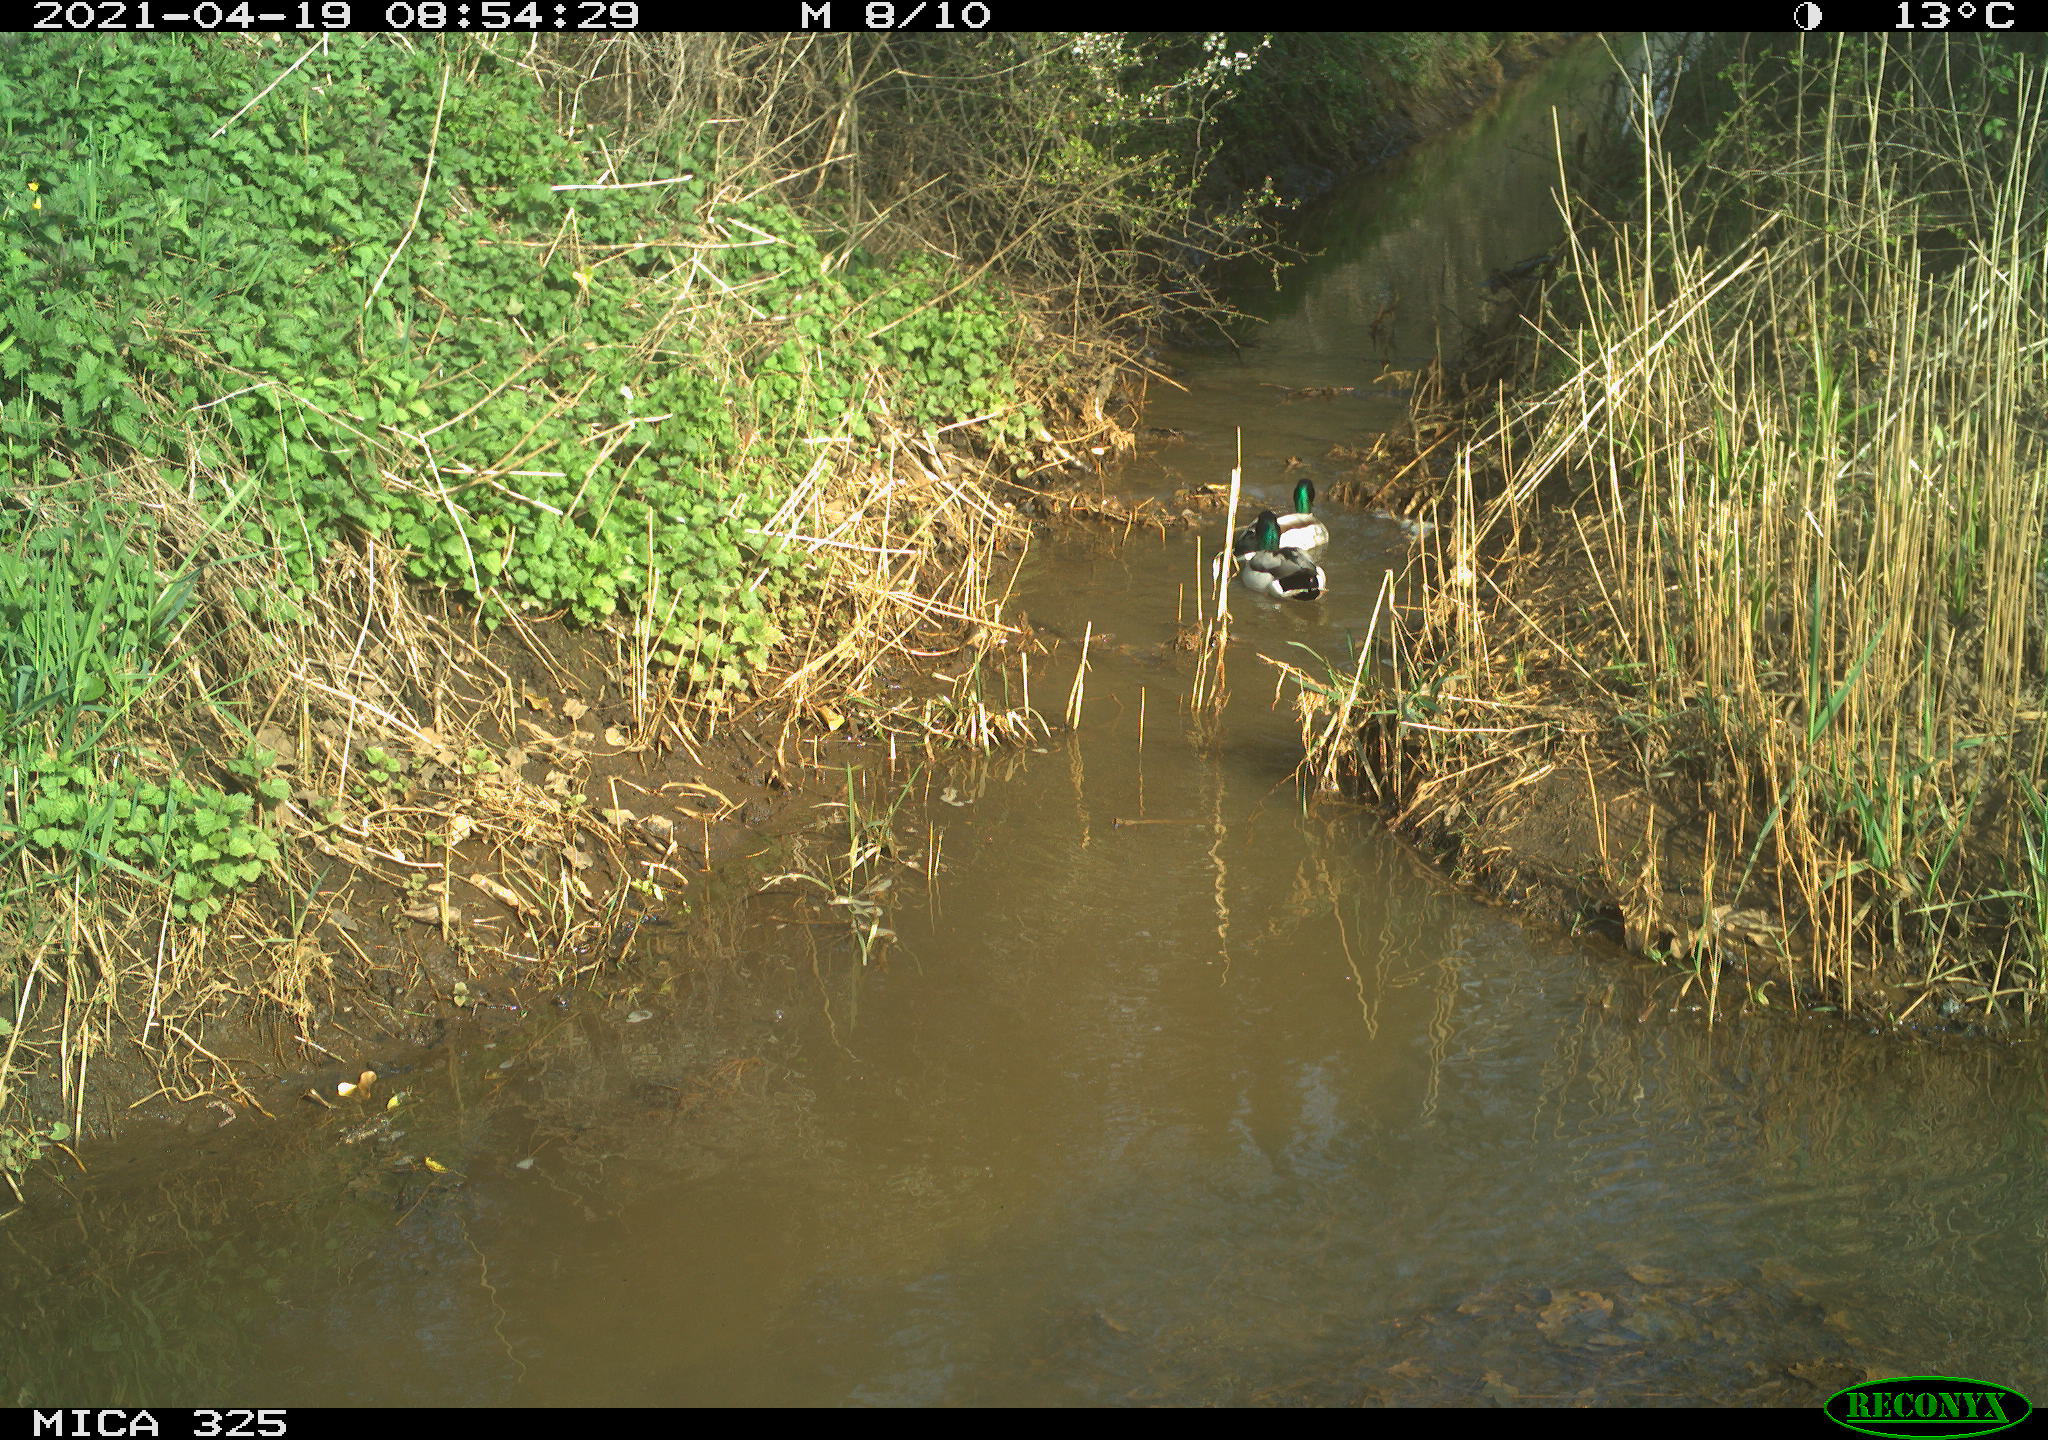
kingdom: Animalia
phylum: Chordata
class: Aves
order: Anseriformes
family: Anatidae
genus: Anas
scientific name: Anas platyrhynchos
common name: Mallard
